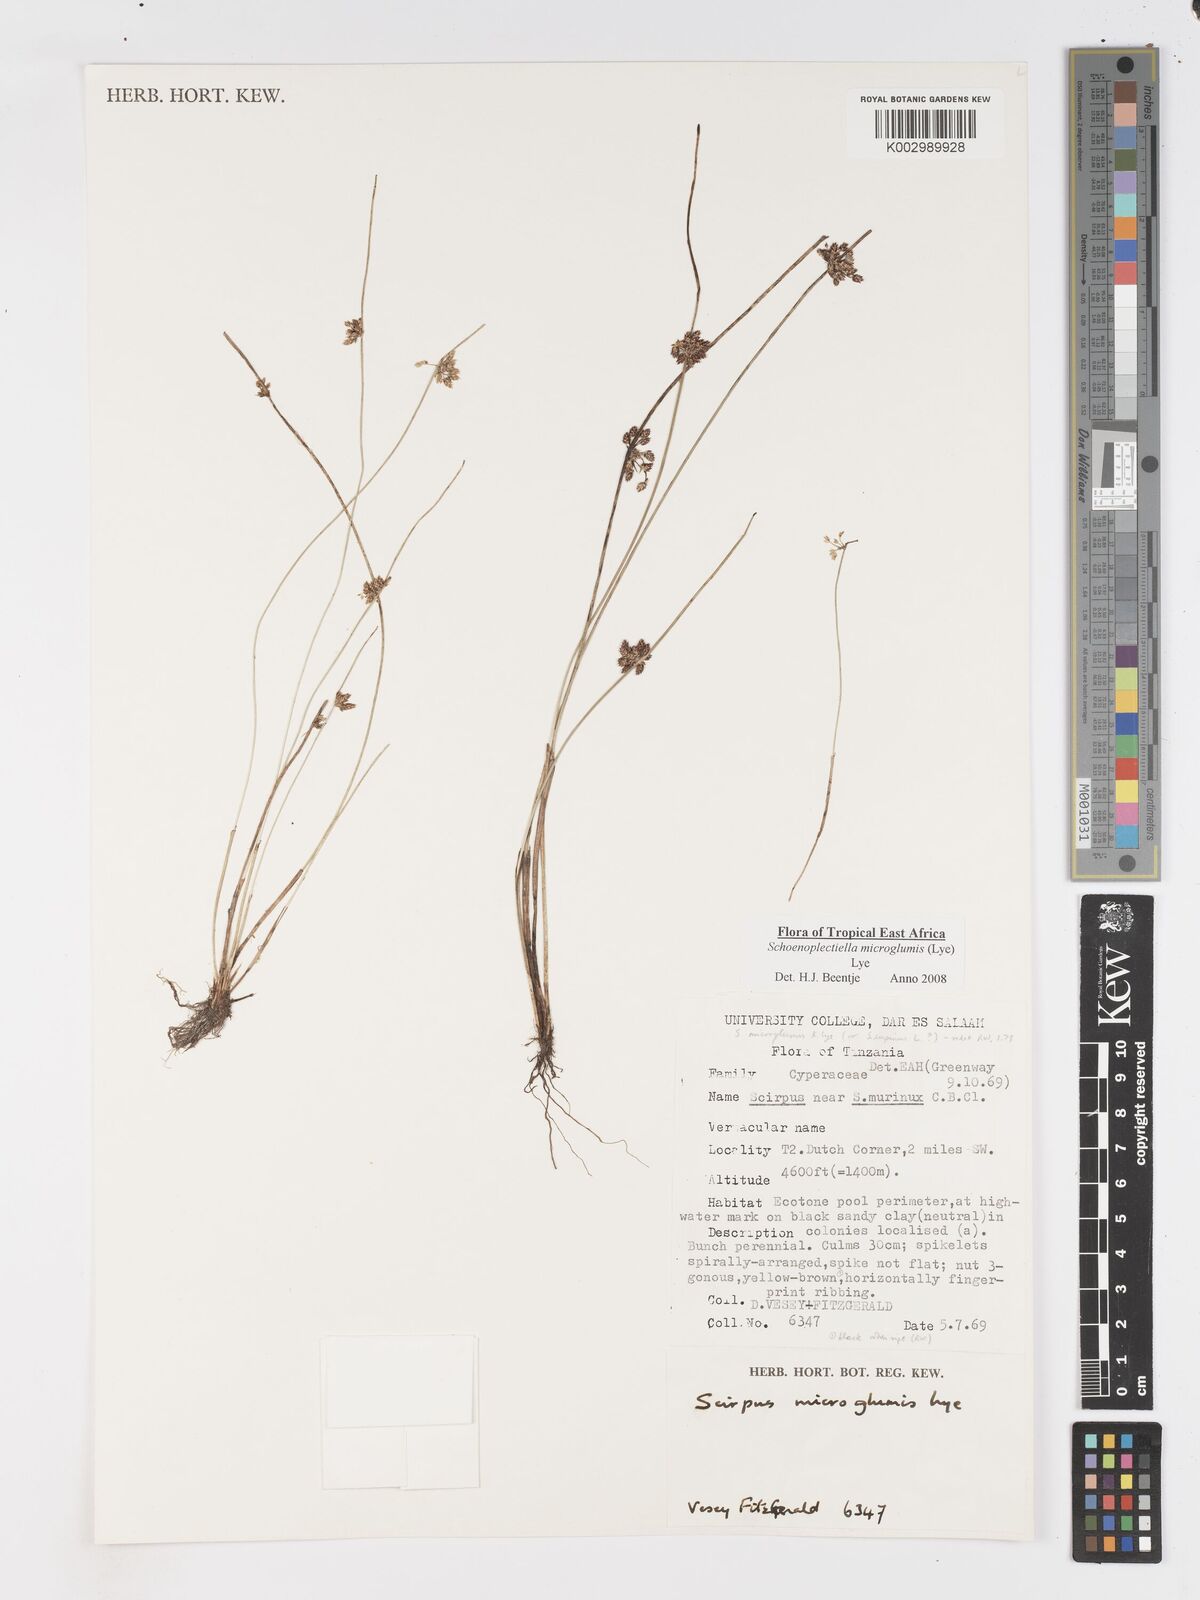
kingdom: Plantae
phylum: Tracheophyta
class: Liliopsida
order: Poales
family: Cyperaceae
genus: Schoenoplectiella
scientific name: Schoenoplectiella microglumis
